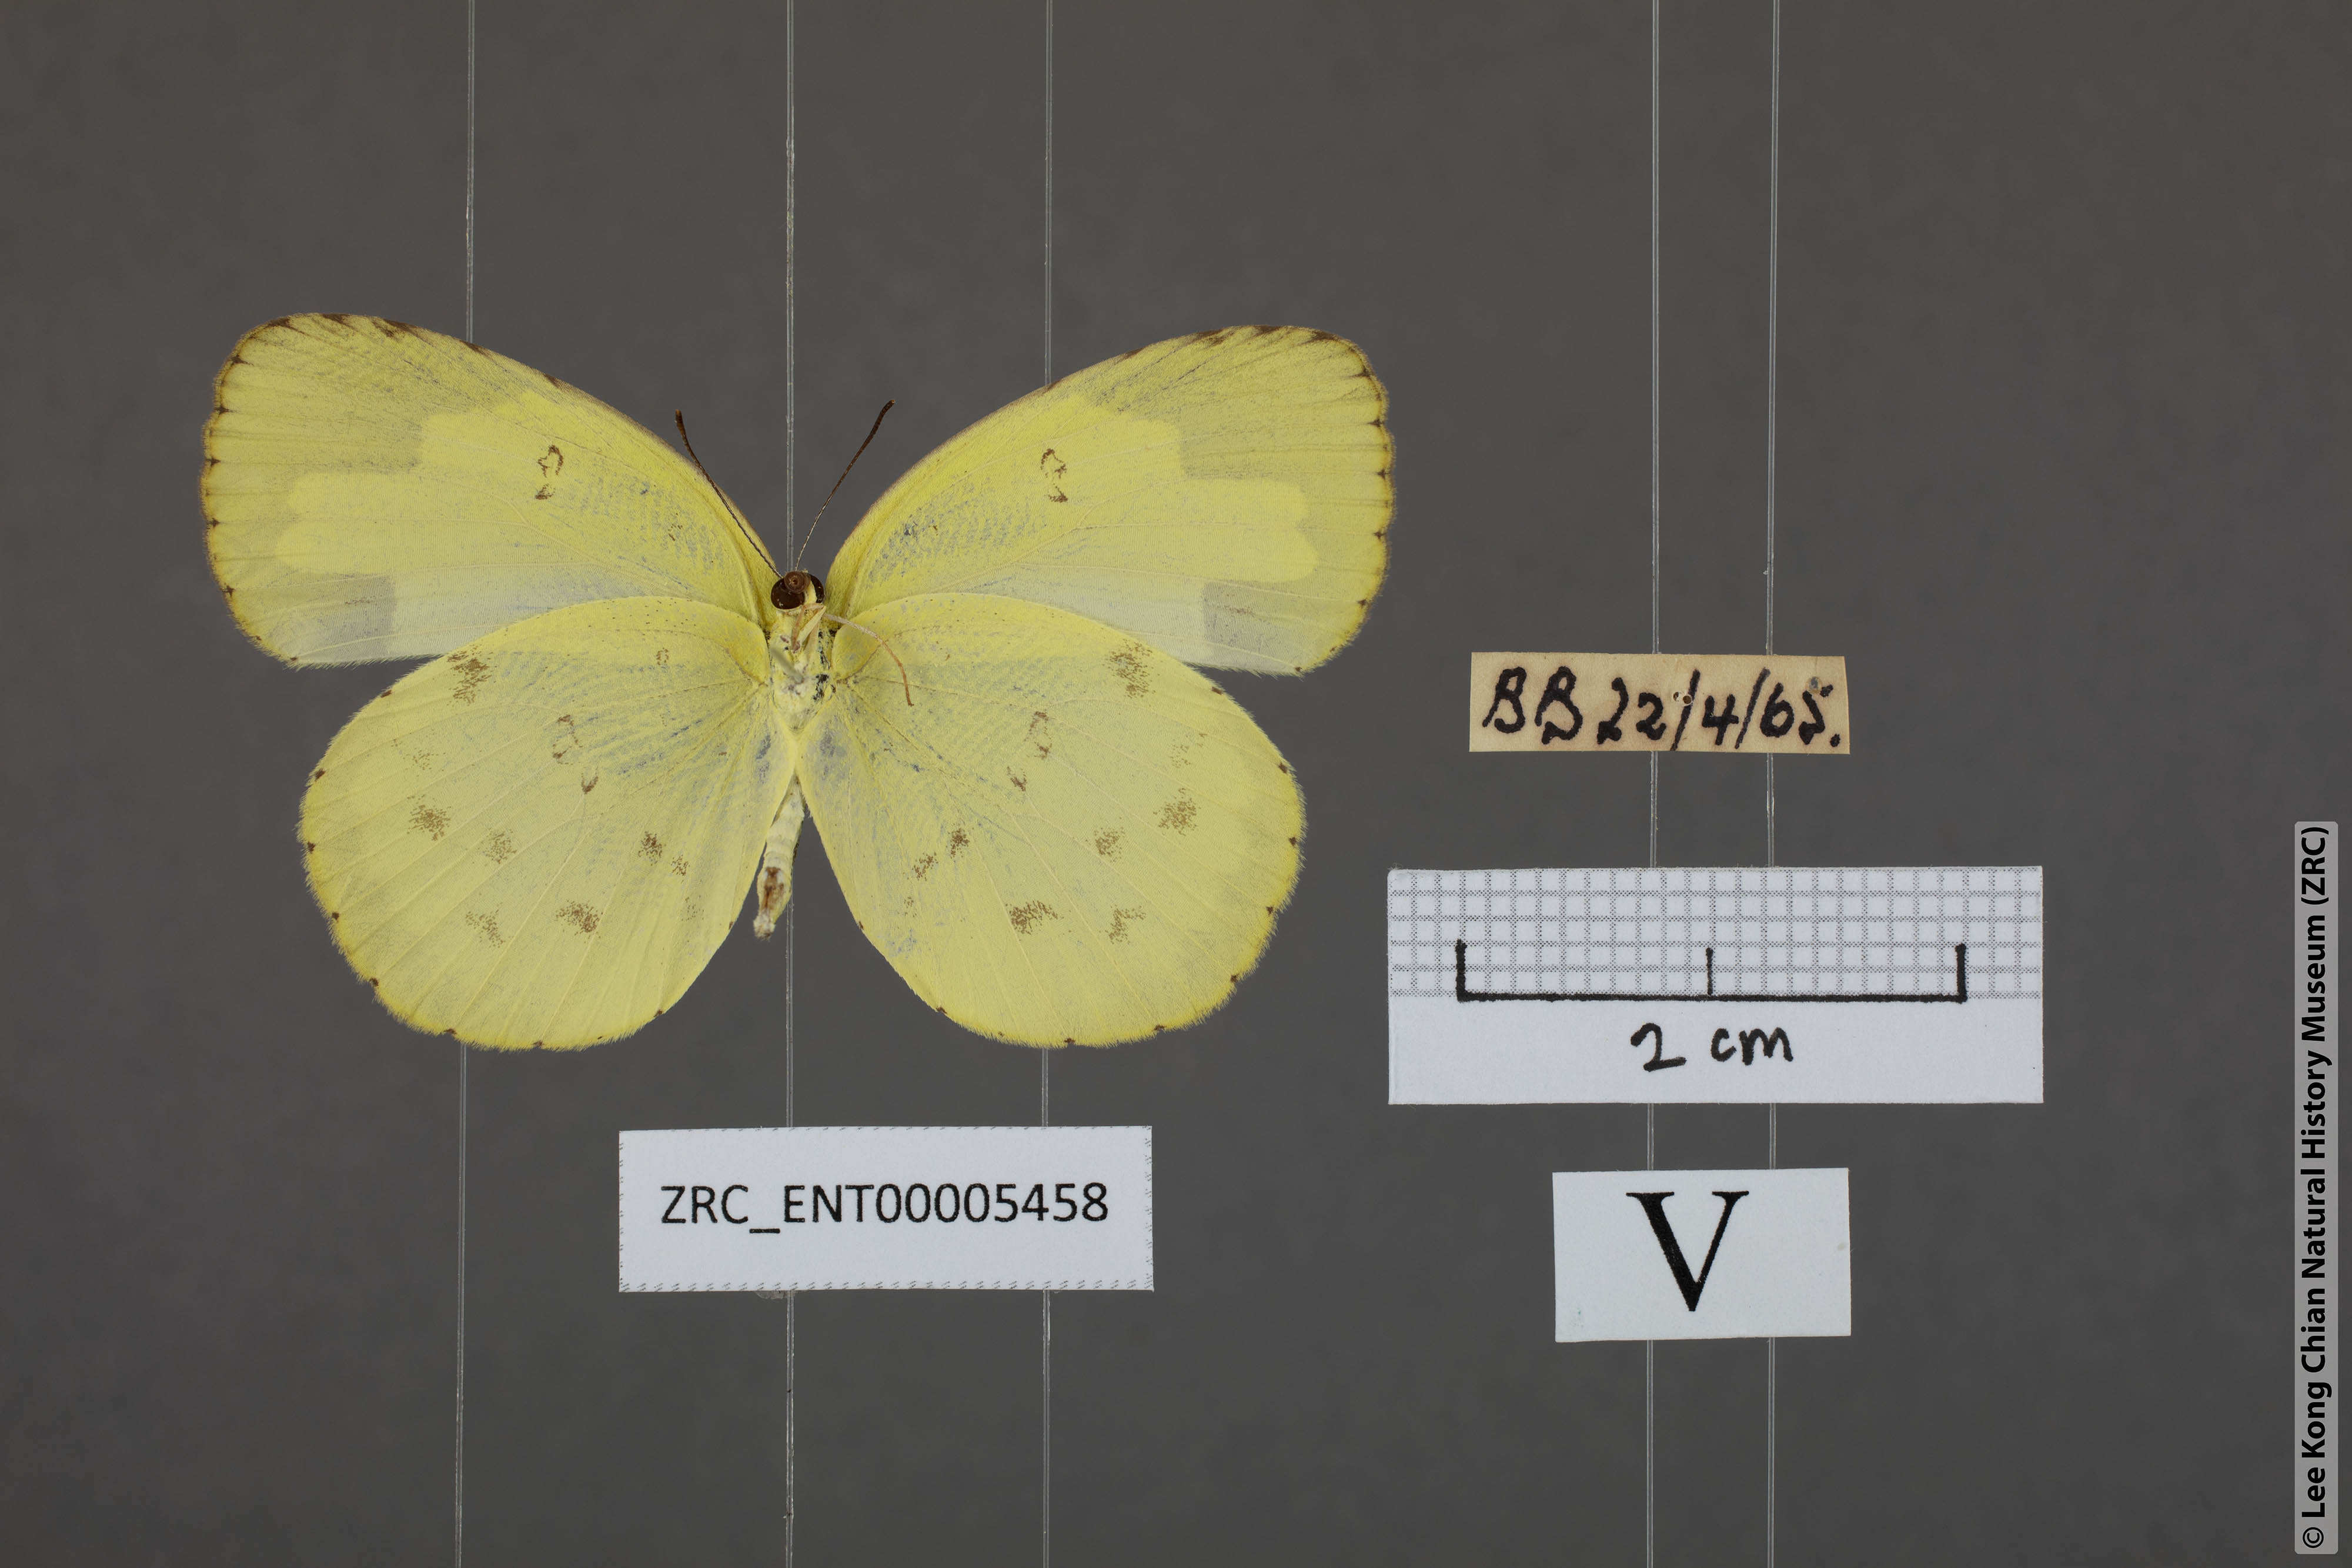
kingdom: Animalia
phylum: Arthropoda
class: Insecta
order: Lepidoptera
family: Pieridae
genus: Eurema
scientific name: Eurema lacteola
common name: Scarce grass yellow
